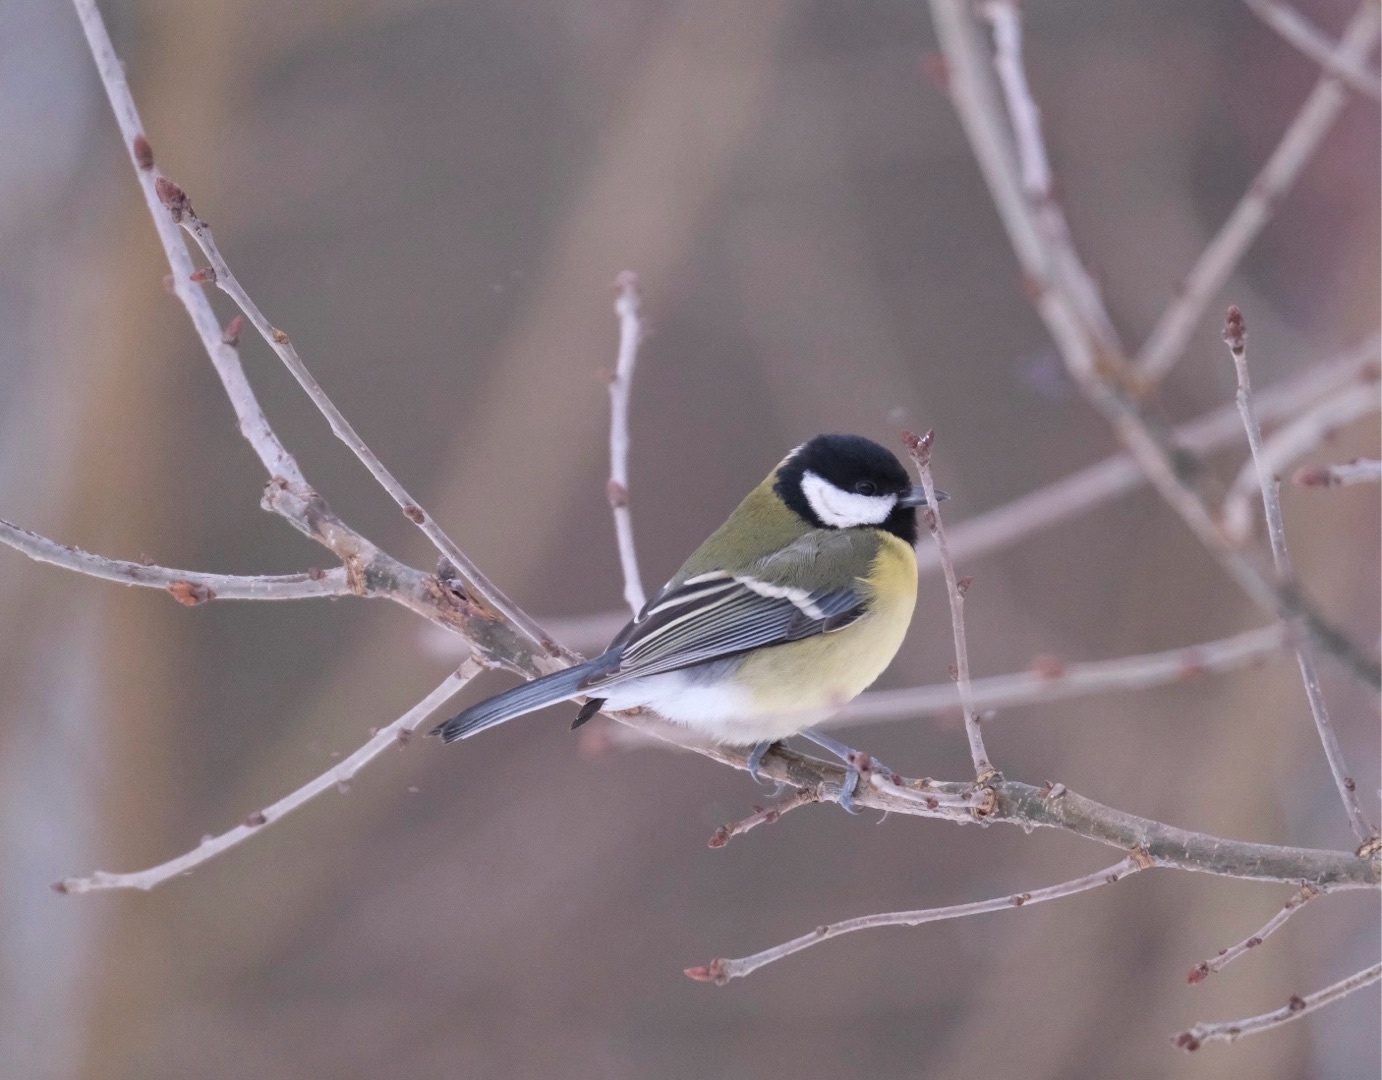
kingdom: Animalia
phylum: Chordata
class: Aves
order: Passeriformes
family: Paridae
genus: Parus
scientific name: Parus major
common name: Musvit
